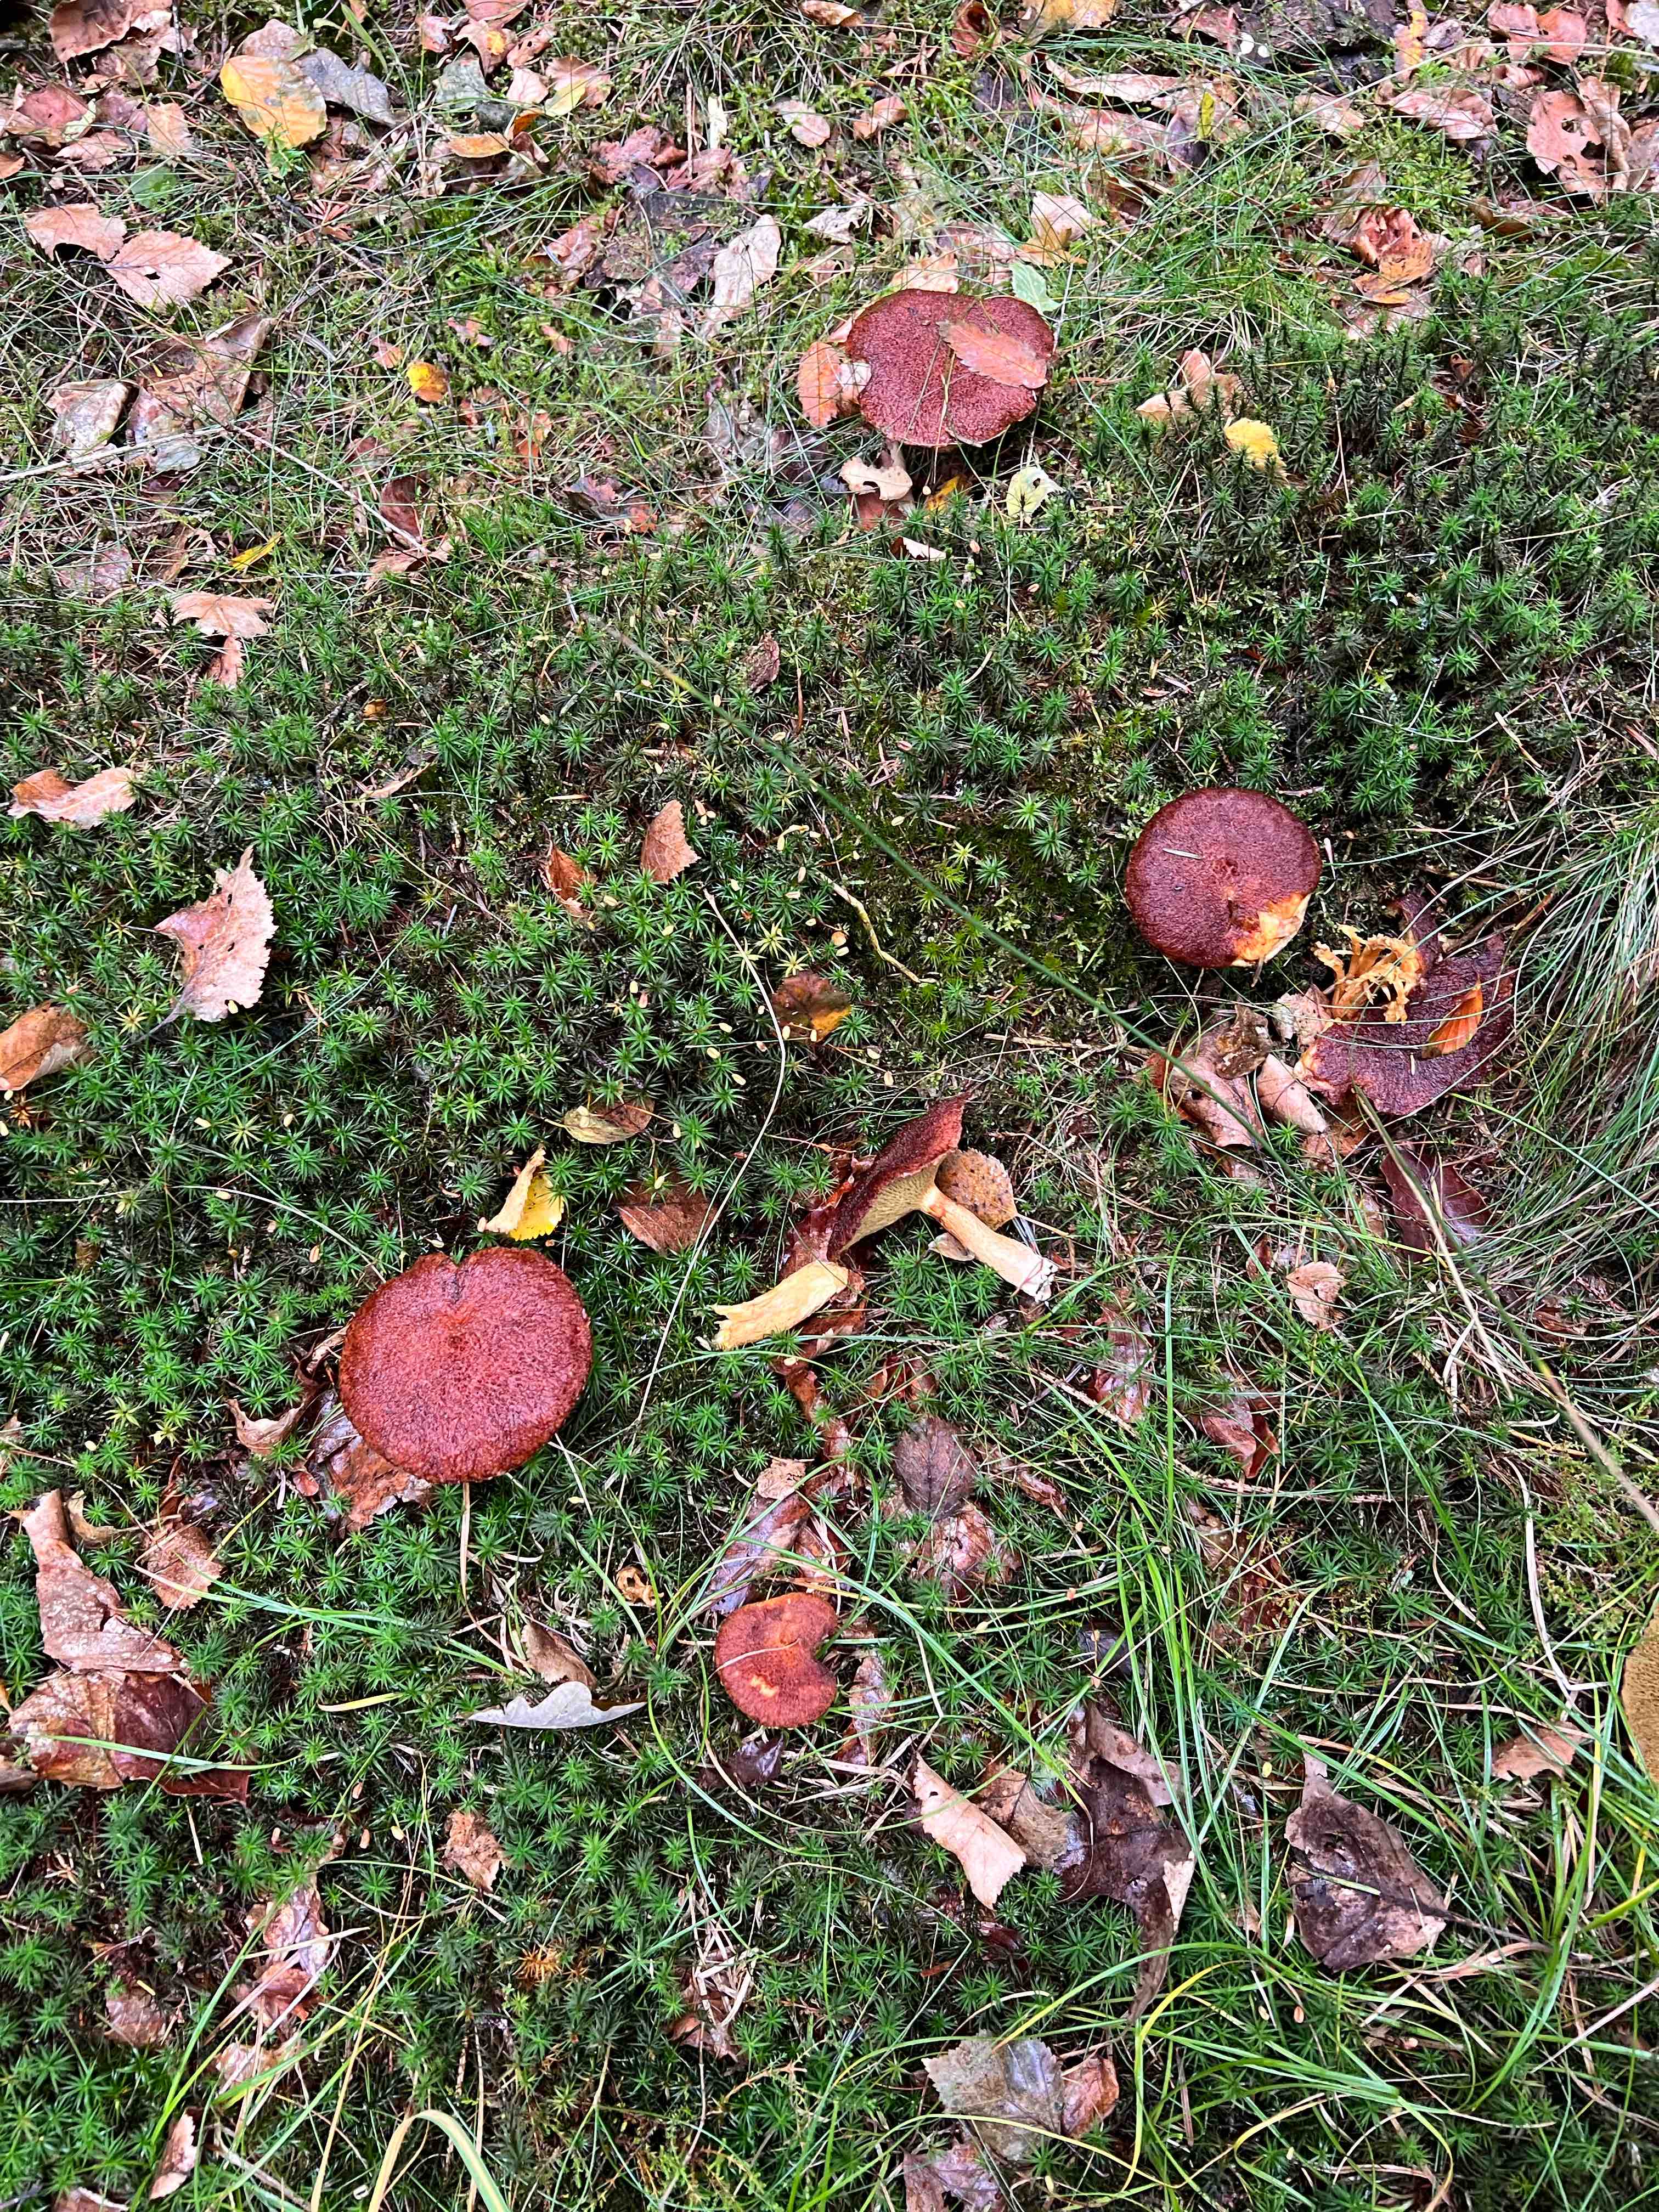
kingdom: Fungi
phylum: Basidiomycota
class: Agaricomycetes
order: Boletales
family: Suillaceae
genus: Suillus
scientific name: Suillus cavipes
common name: hulstokket slimrørhat
